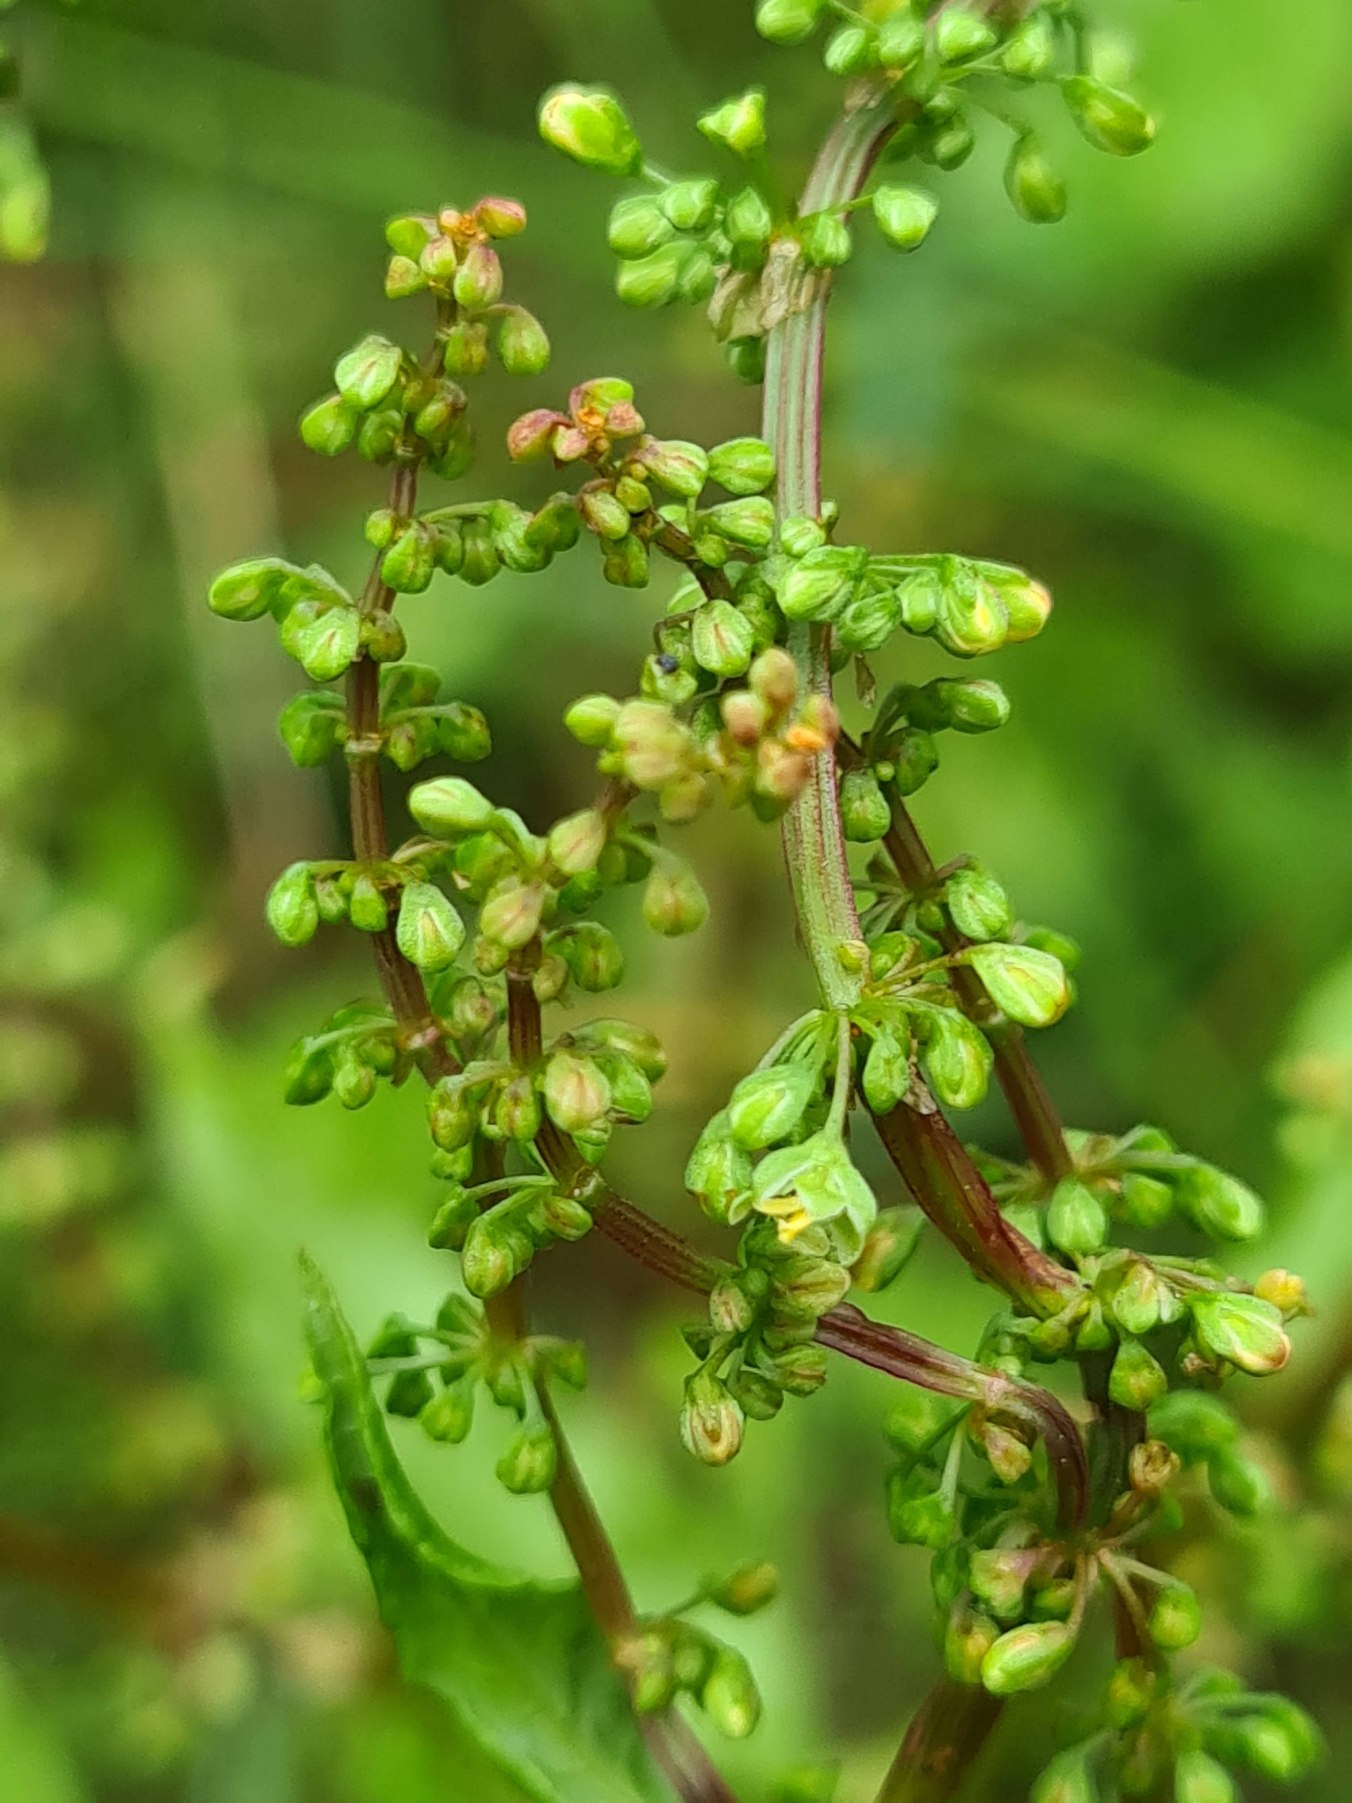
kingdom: Plantae
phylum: Tracheophyta
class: Magnoliopsida
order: Caryophyllales
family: Polygonaceae
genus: Rumex
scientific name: Rumex sanguineus
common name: Skov-skræppe
